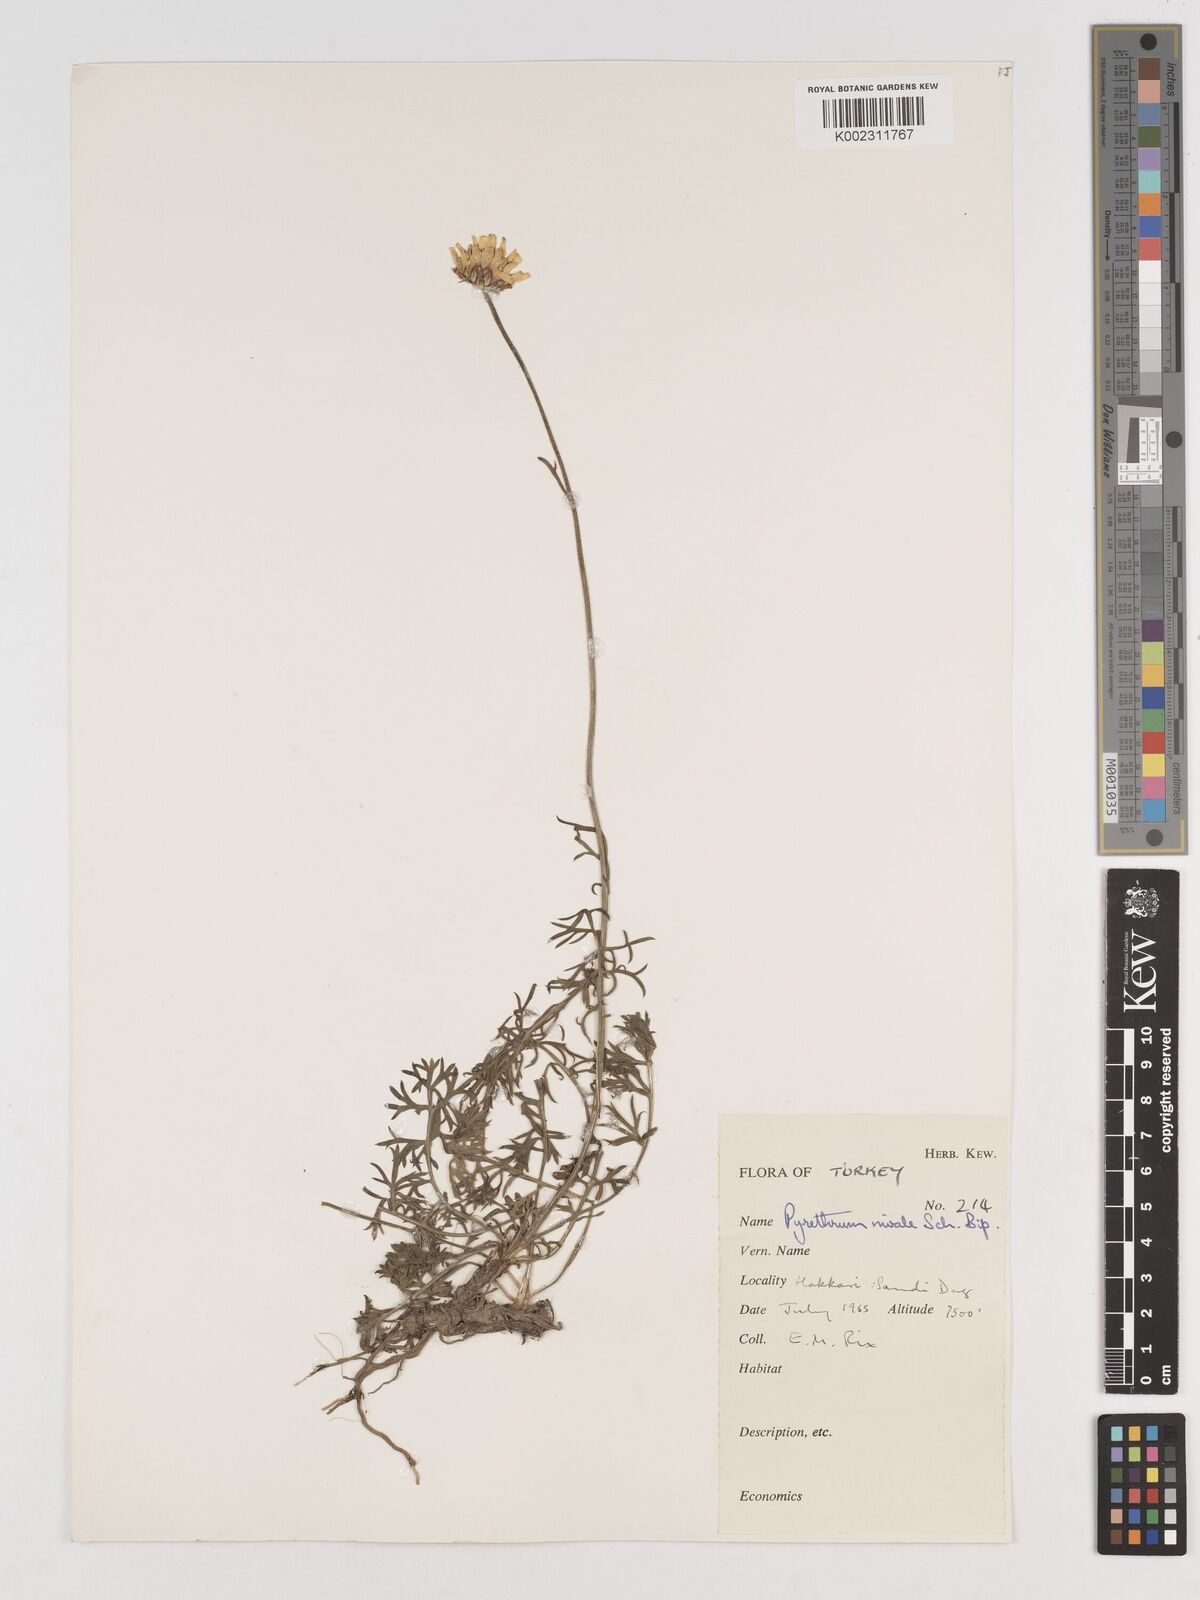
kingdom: Plantae
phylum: Tracheophyta
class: Magnoliopsida
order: Asterales
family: Asteraceae
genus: Tanacetum
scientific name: Tanacetum nivale
